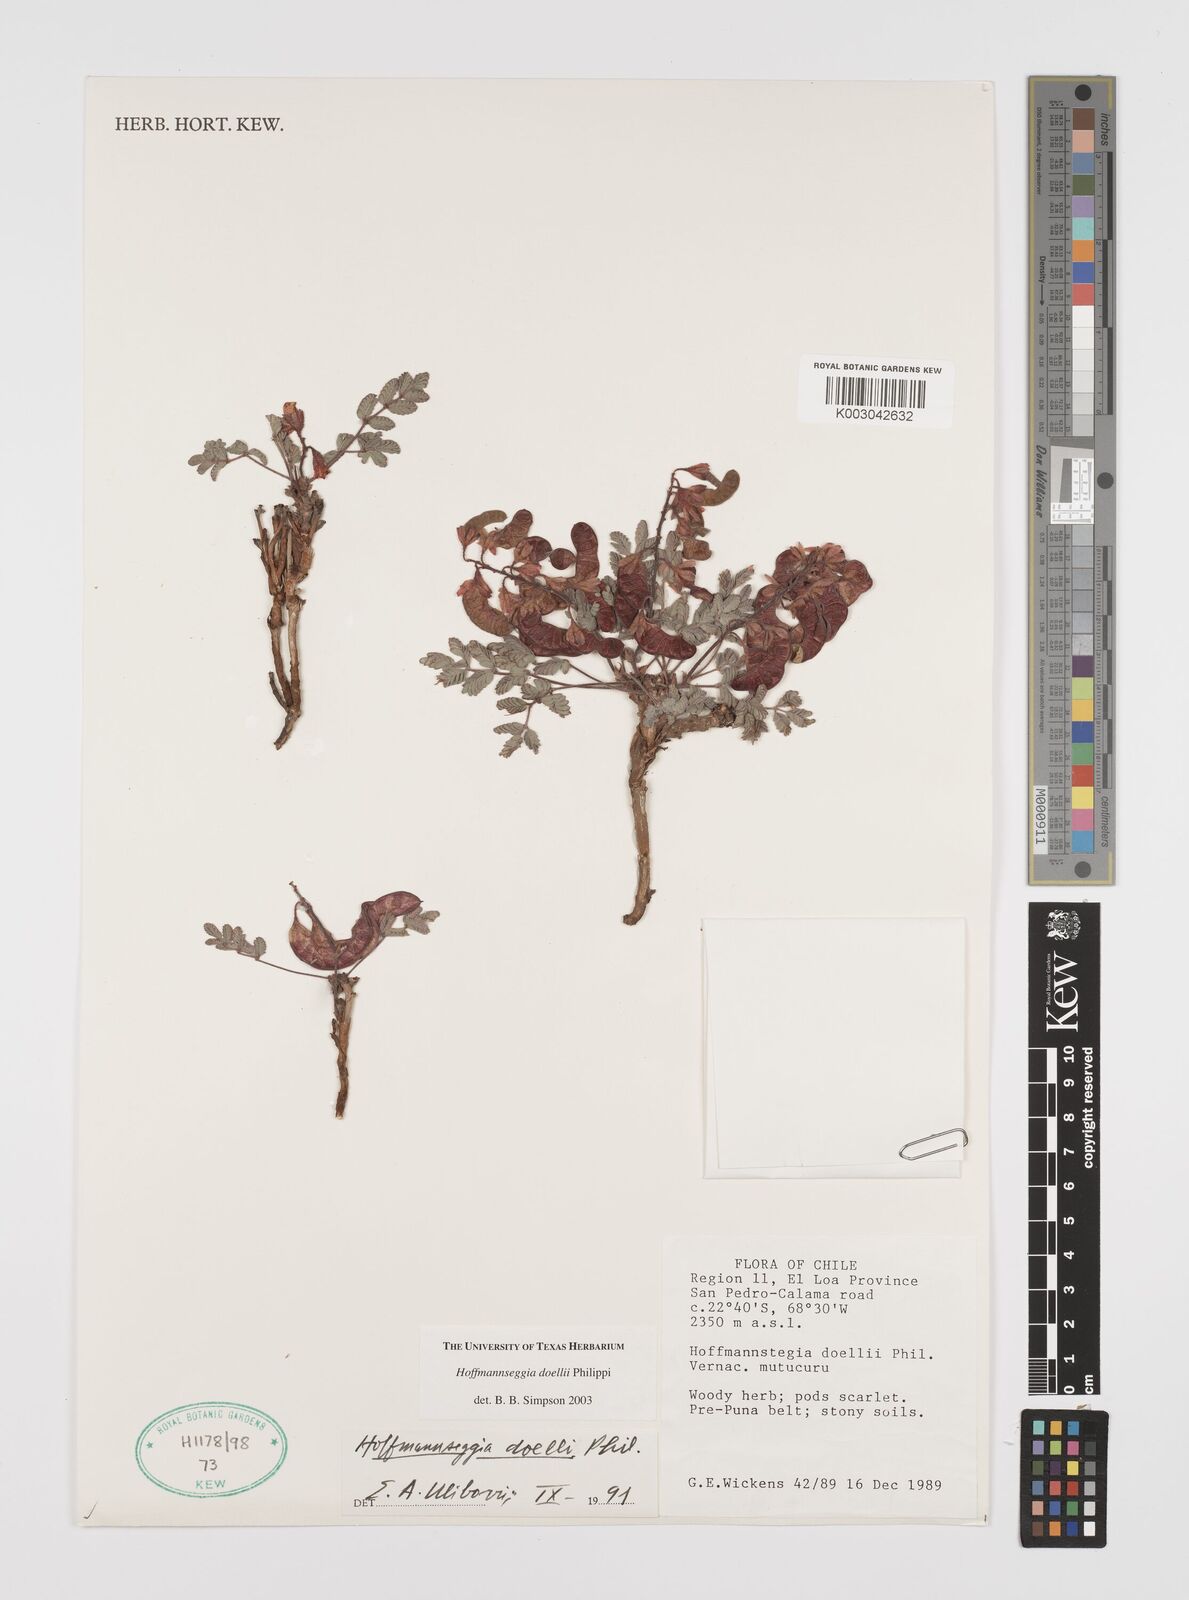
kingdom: Plantae
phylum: Tracheophyta
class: Magnoliopsida
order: Fabales
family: Fabaceae
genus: Hoffmannseggia
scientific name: Hoffmannseggia doellii
